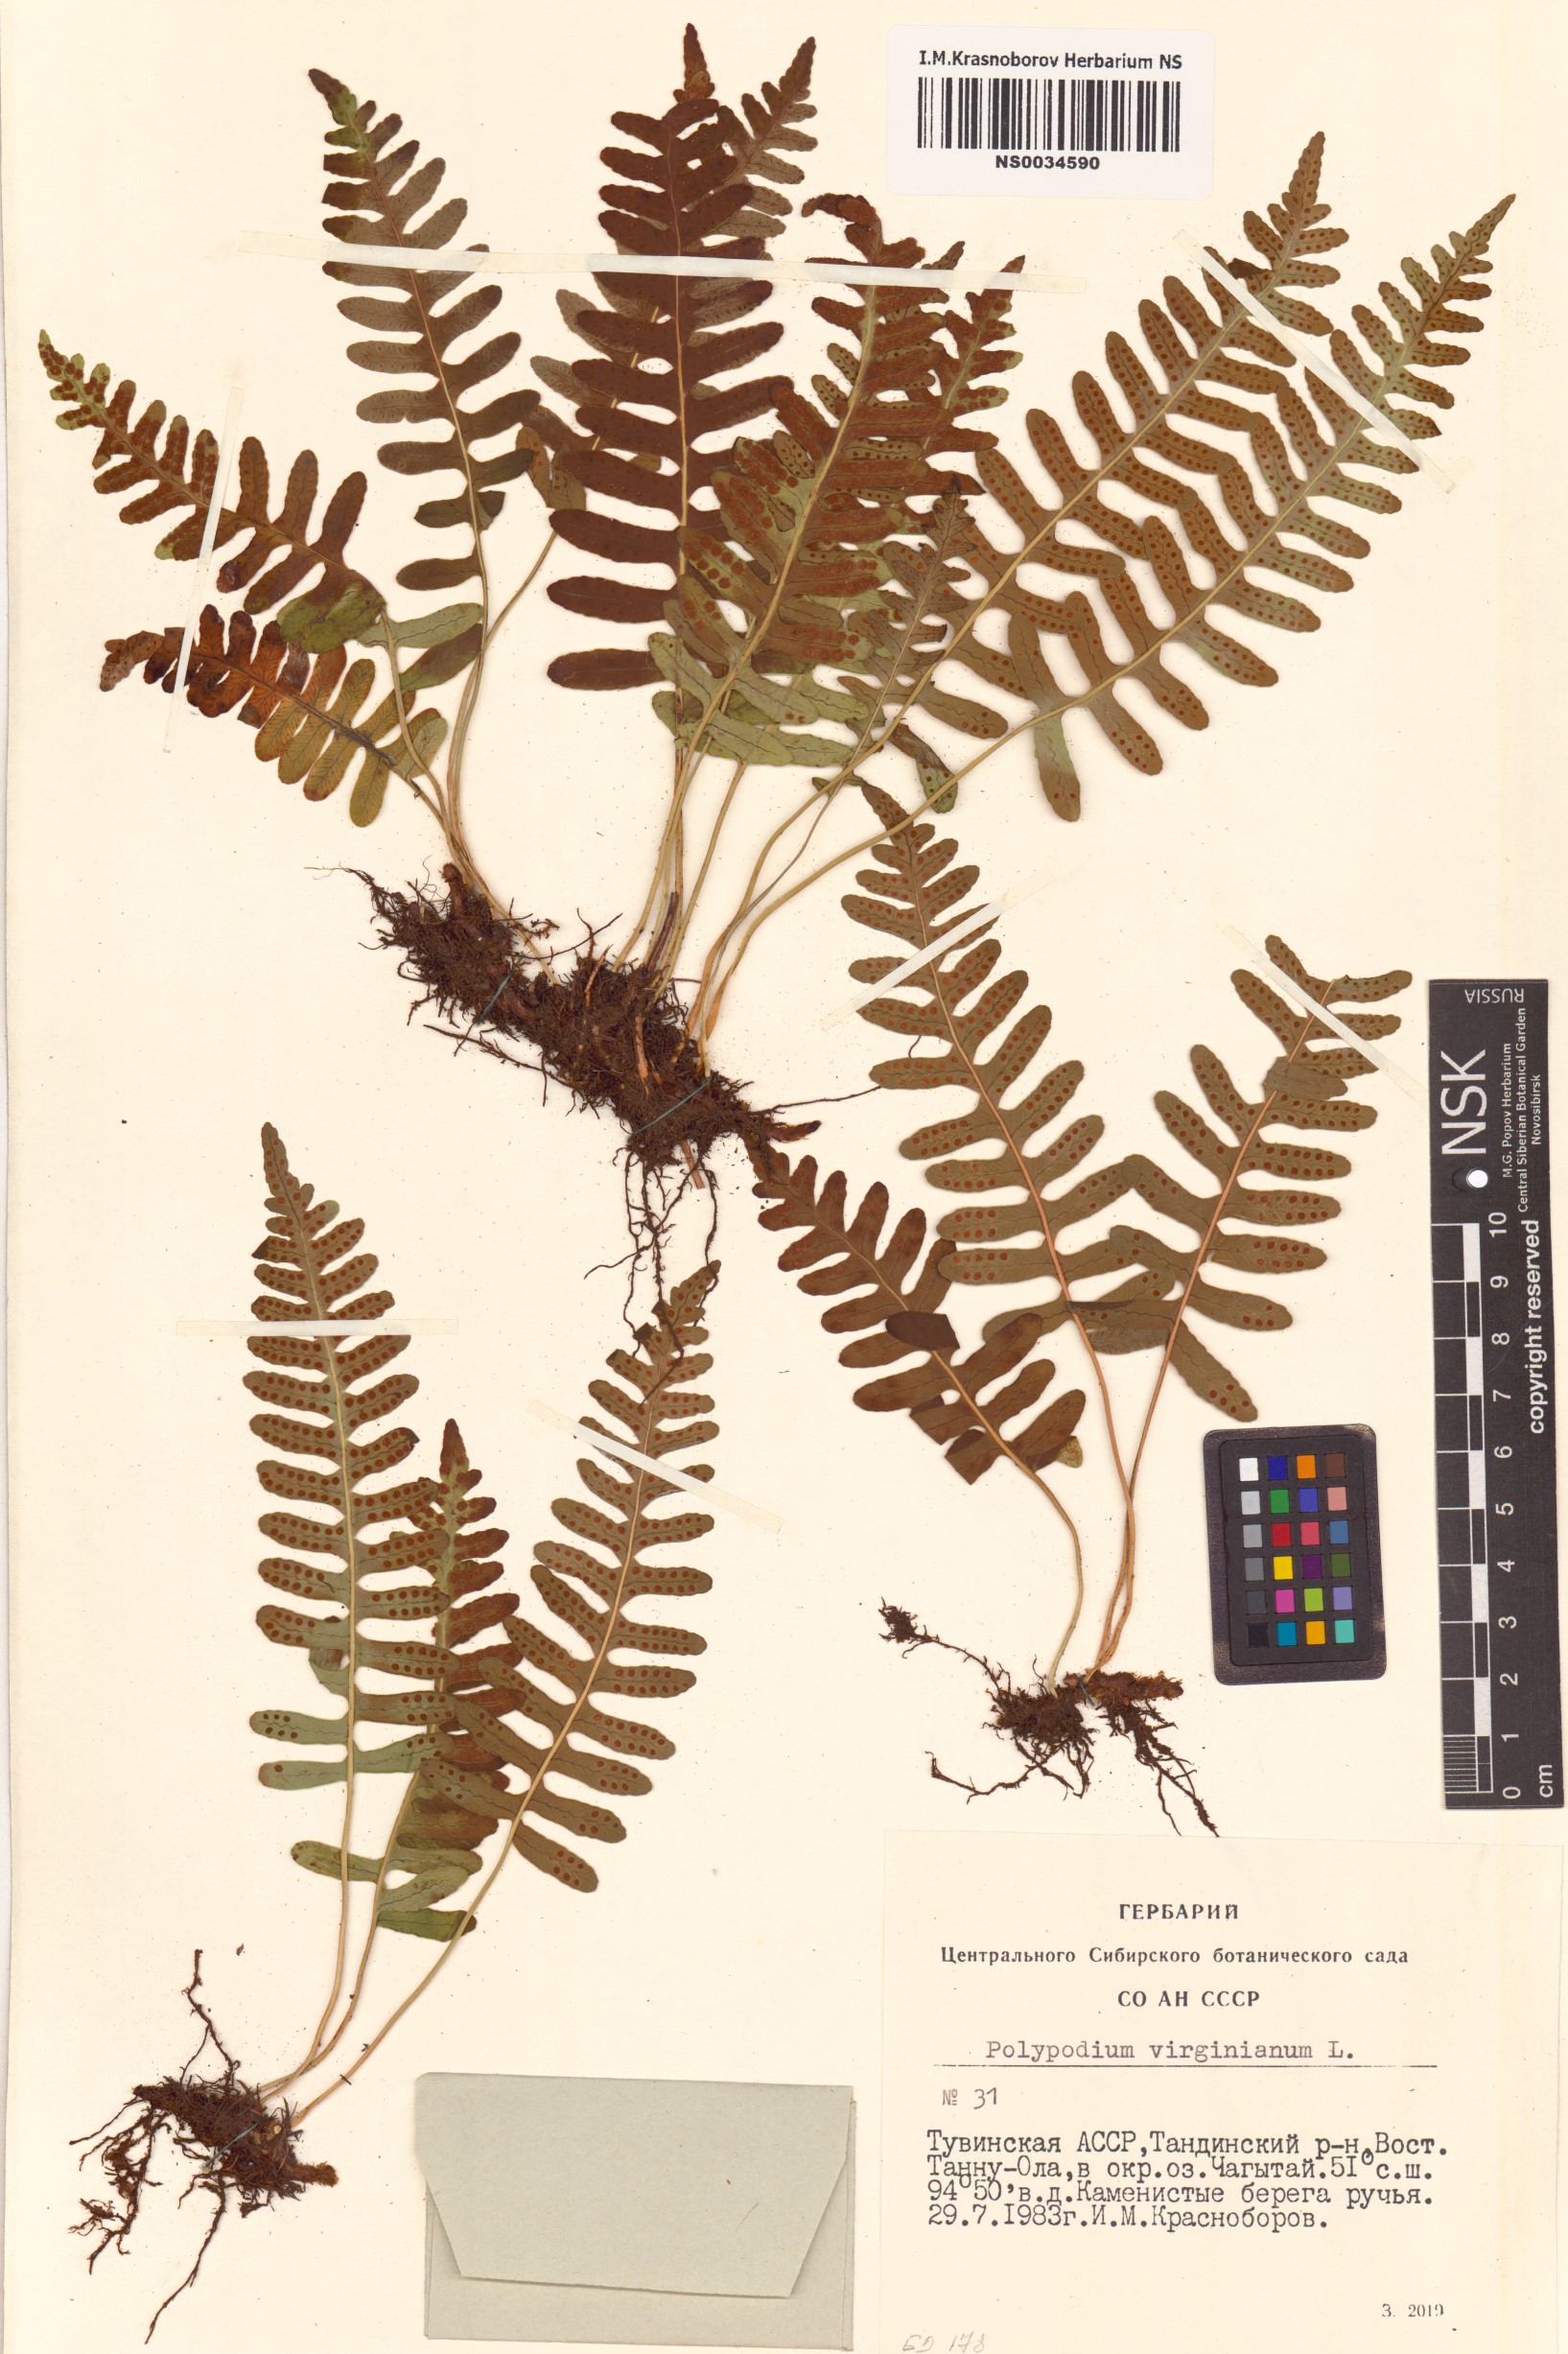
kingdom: Plantae
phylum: Tracheophyta
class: Polypodiopsida
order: Polypodiales
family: Polypodiaceae
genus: Polypodium
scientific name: Polypodium virginianum
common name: American wall fern
